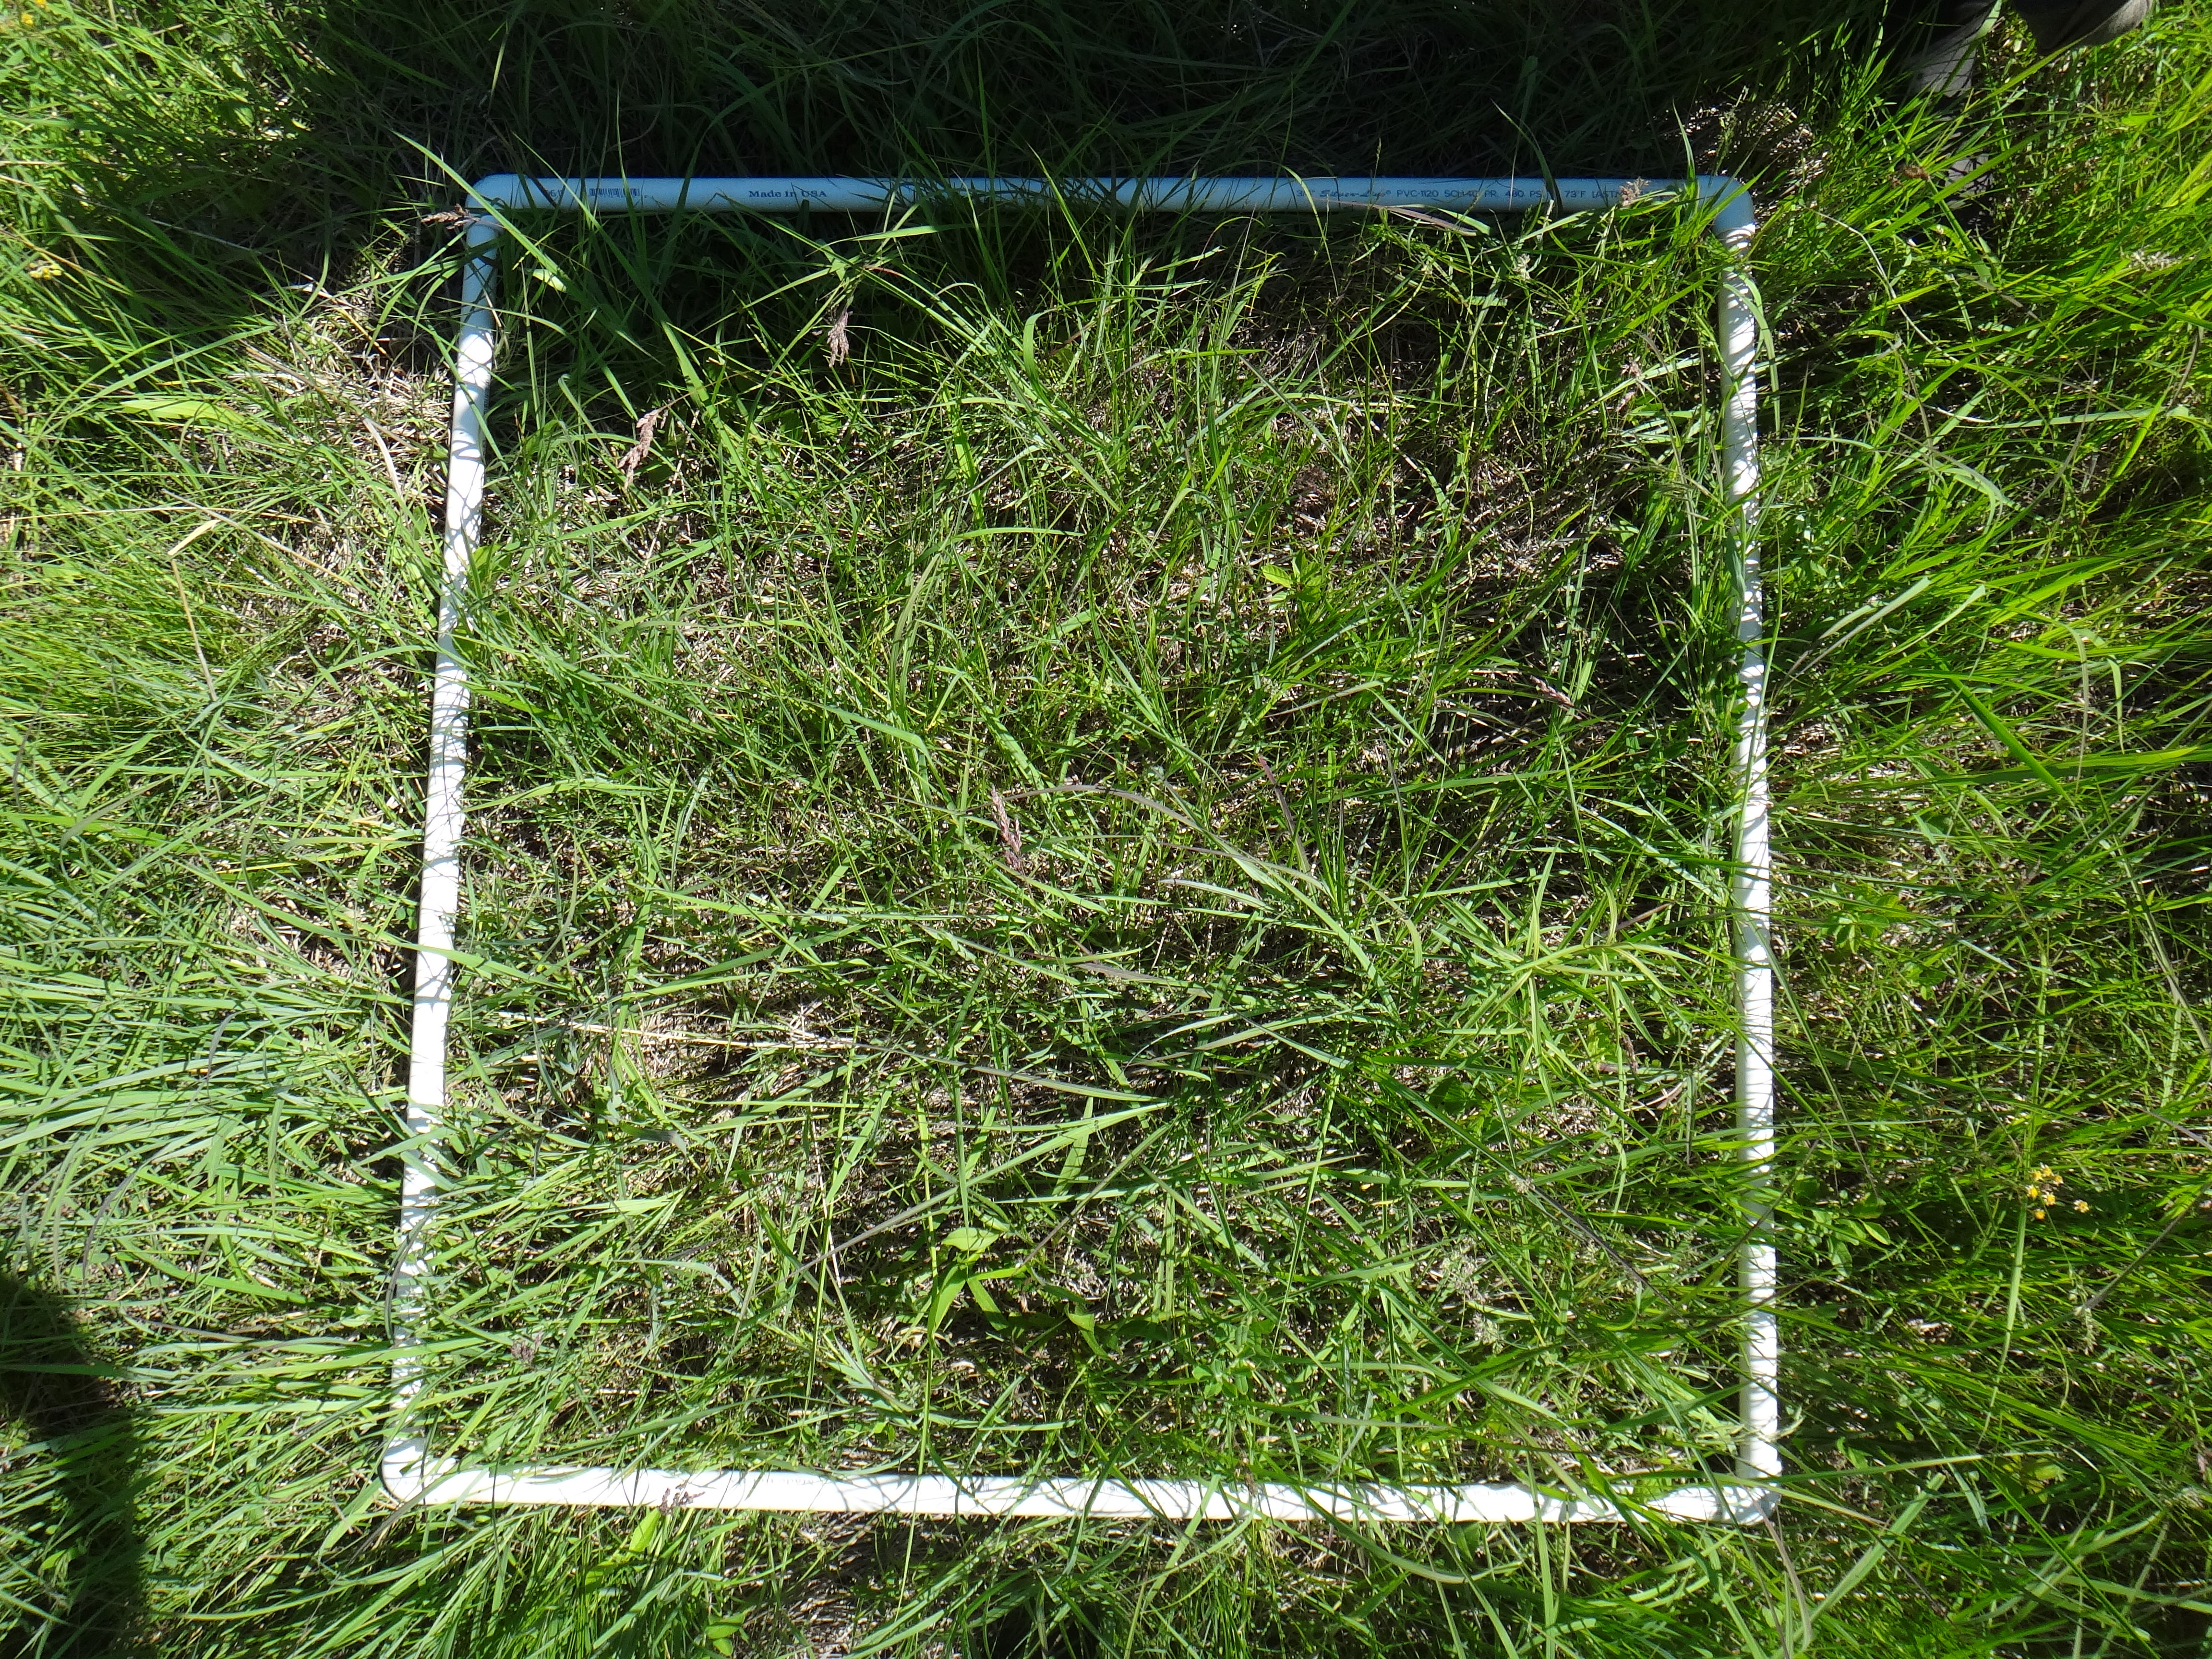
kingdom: Plantae
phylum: Tracheophyta
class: Liliopsida
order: Asparagales
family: Hypoxidaceae
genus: Hypoxis
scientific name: Hypoxis hirsuta
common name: Common goldstar
